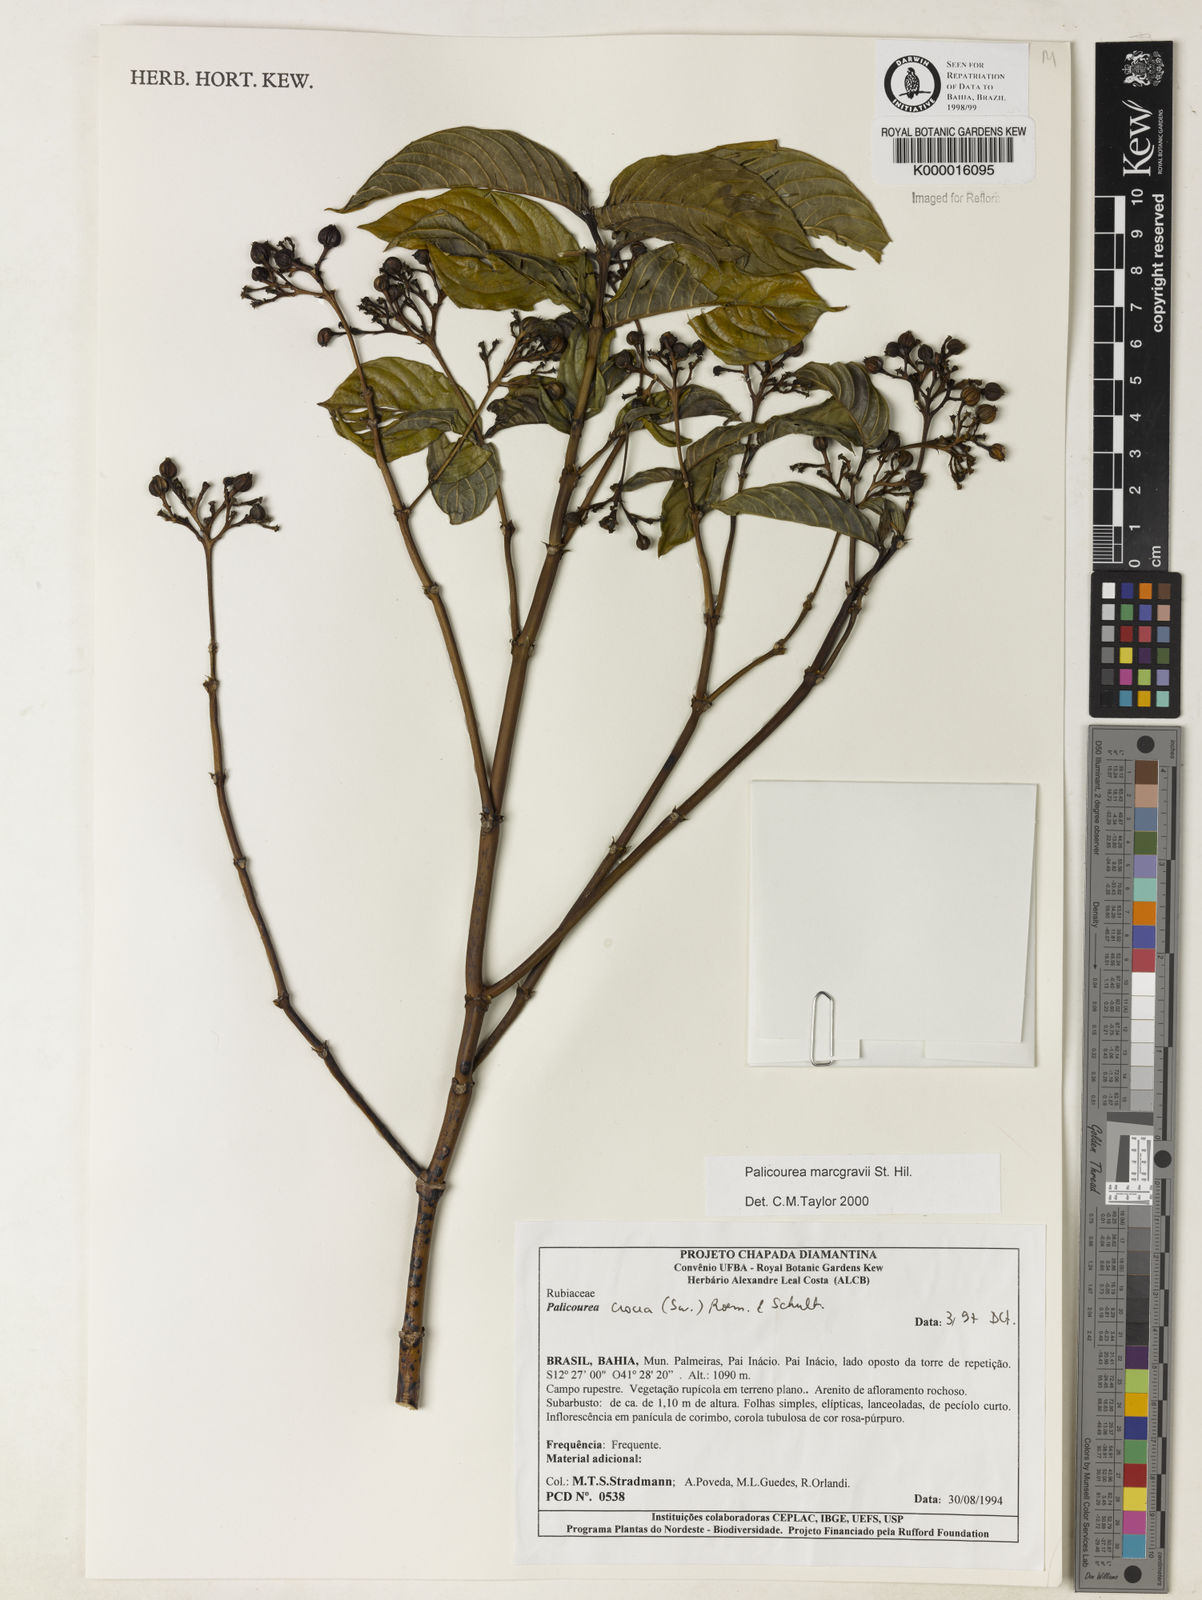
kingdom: Plantae
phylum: Tracheophyta
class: Magnoliopsida
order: Gentianales
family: Rubiaceae
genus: Palicourea
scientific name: Palicourea marcgravii
